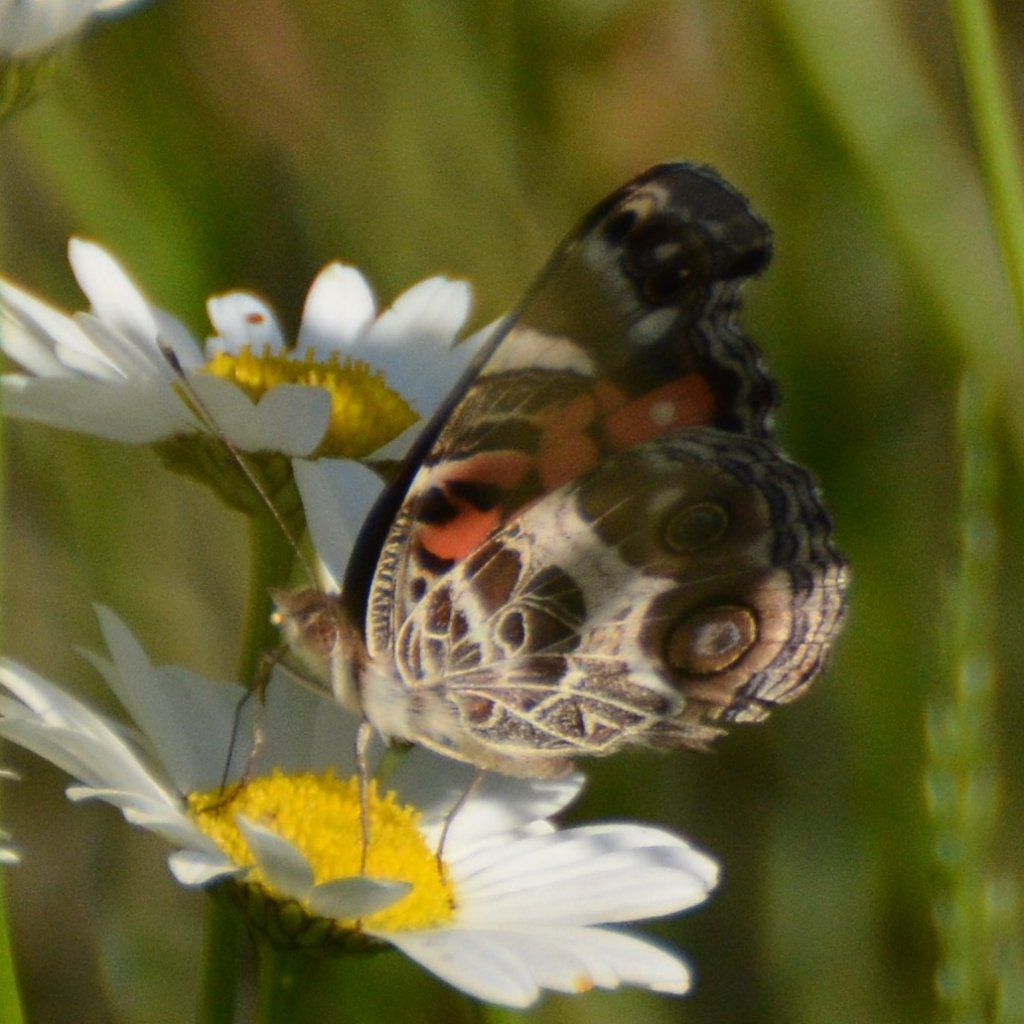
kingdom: Animalia
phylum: Arthropoda
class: Insecta
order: Lepidoptera
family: Nymphalidae
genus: Vanessa
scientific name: Vanessa virginiensis
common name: American Lady
